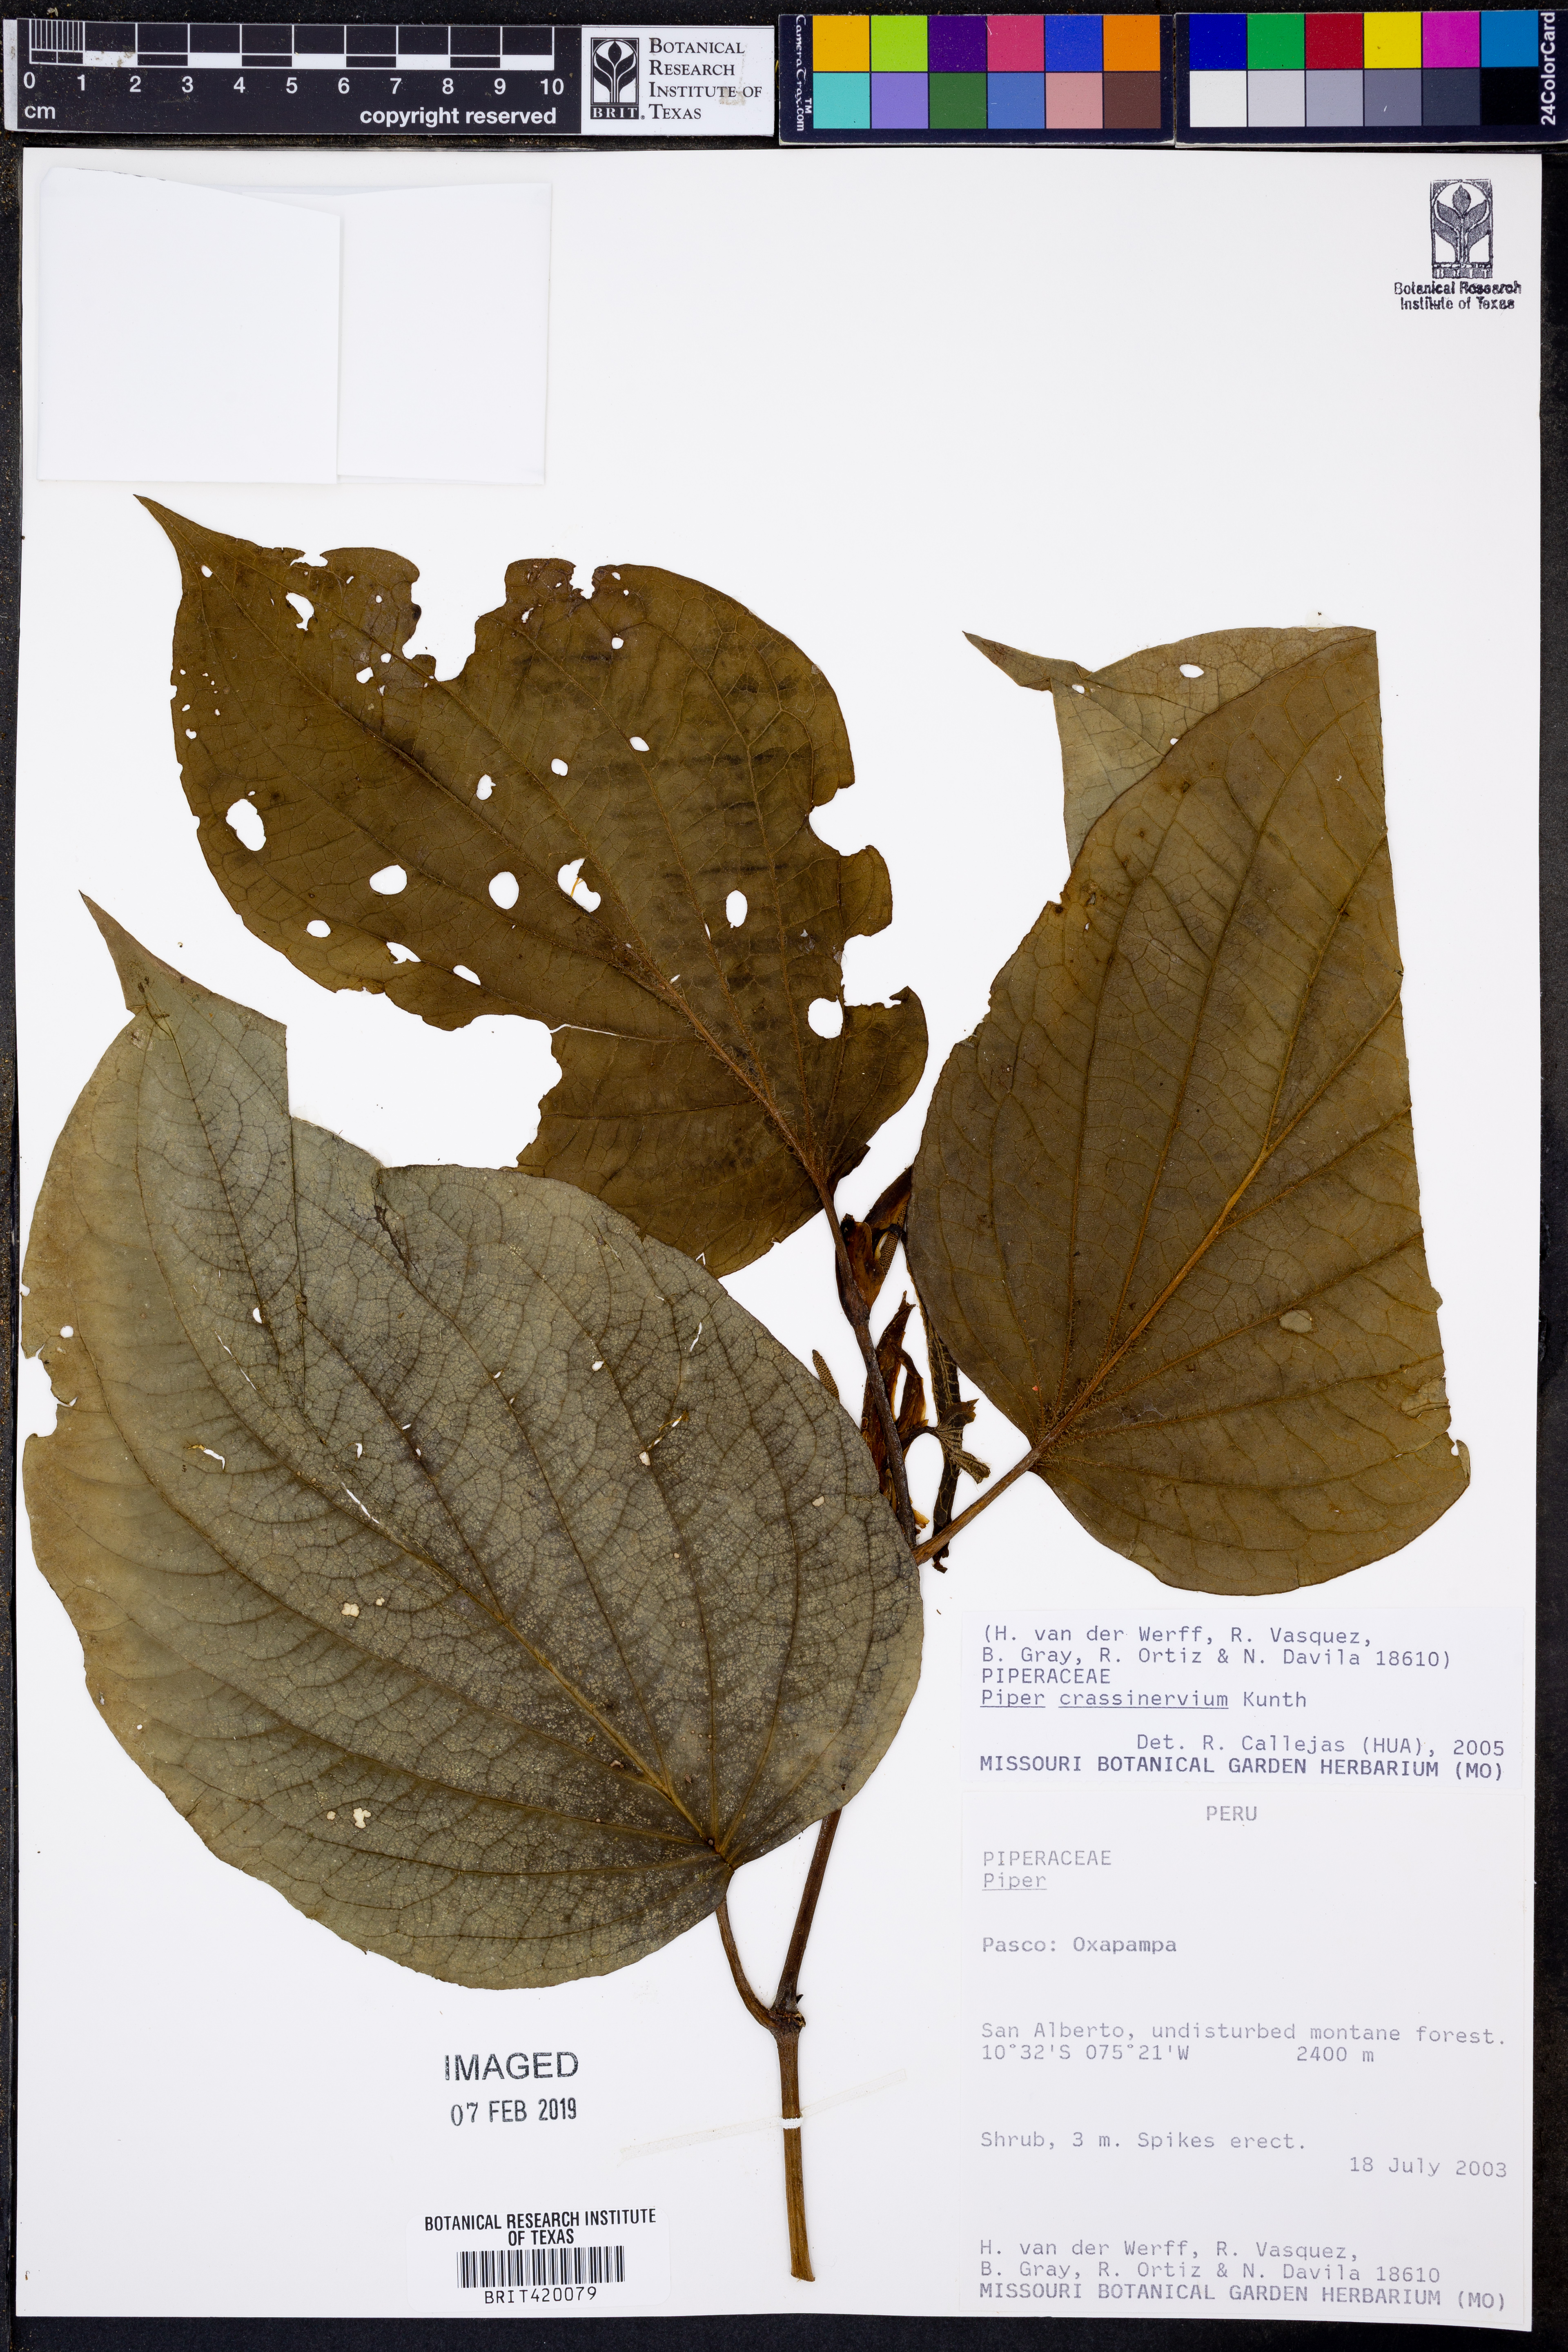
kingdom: Plantae
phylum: Tracheophyta
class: Magnoliopsida
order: Piperales
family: Piperaceae
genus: Piper
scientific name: Piper crassinervium
